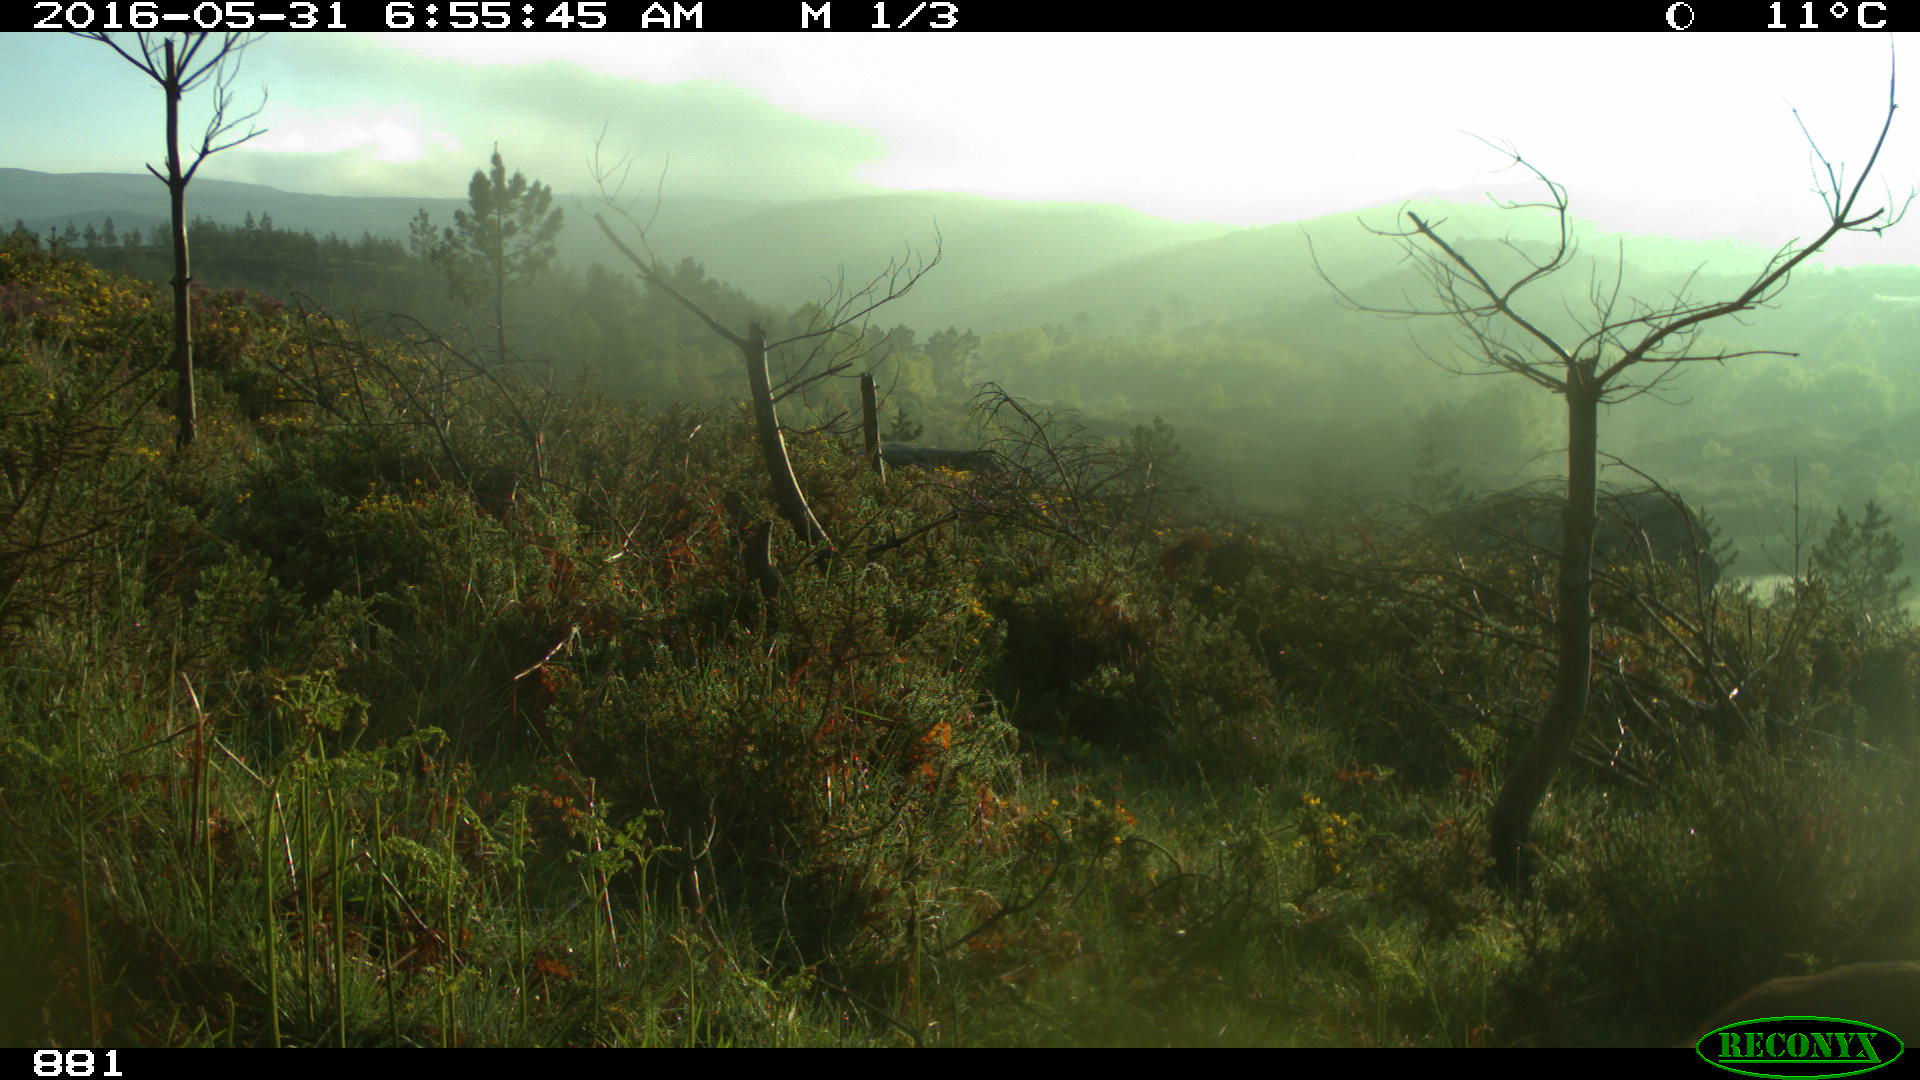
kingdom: Animalia
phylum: Chordata
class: Mammalia
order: Artiodactyla
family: Cervidae
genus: Capreolus
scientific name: Capreolus capreolus
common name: Western roe deer
